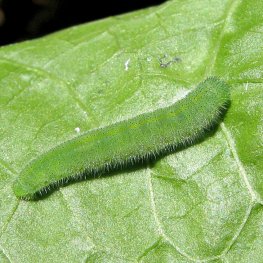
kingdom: Animalia
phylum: Arthropoda
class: Insecta
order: Lepidoptera
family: Pieridae
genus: Pieris
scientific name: Pieris rapae
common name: Cabbage White
